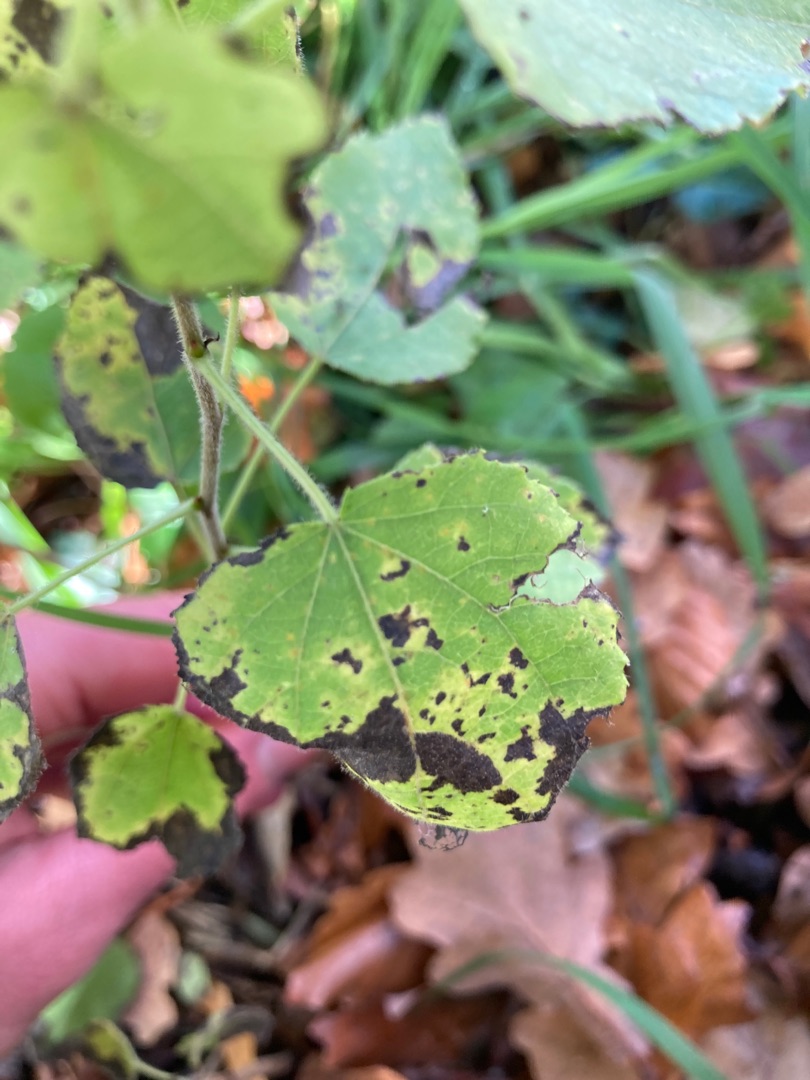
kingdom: Plantae
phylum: Tracheophyta
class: Magnoliopsida
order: Malpighiales
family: Salicaceae
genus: Populus
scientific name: Populus tremula
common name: Bævreasp
